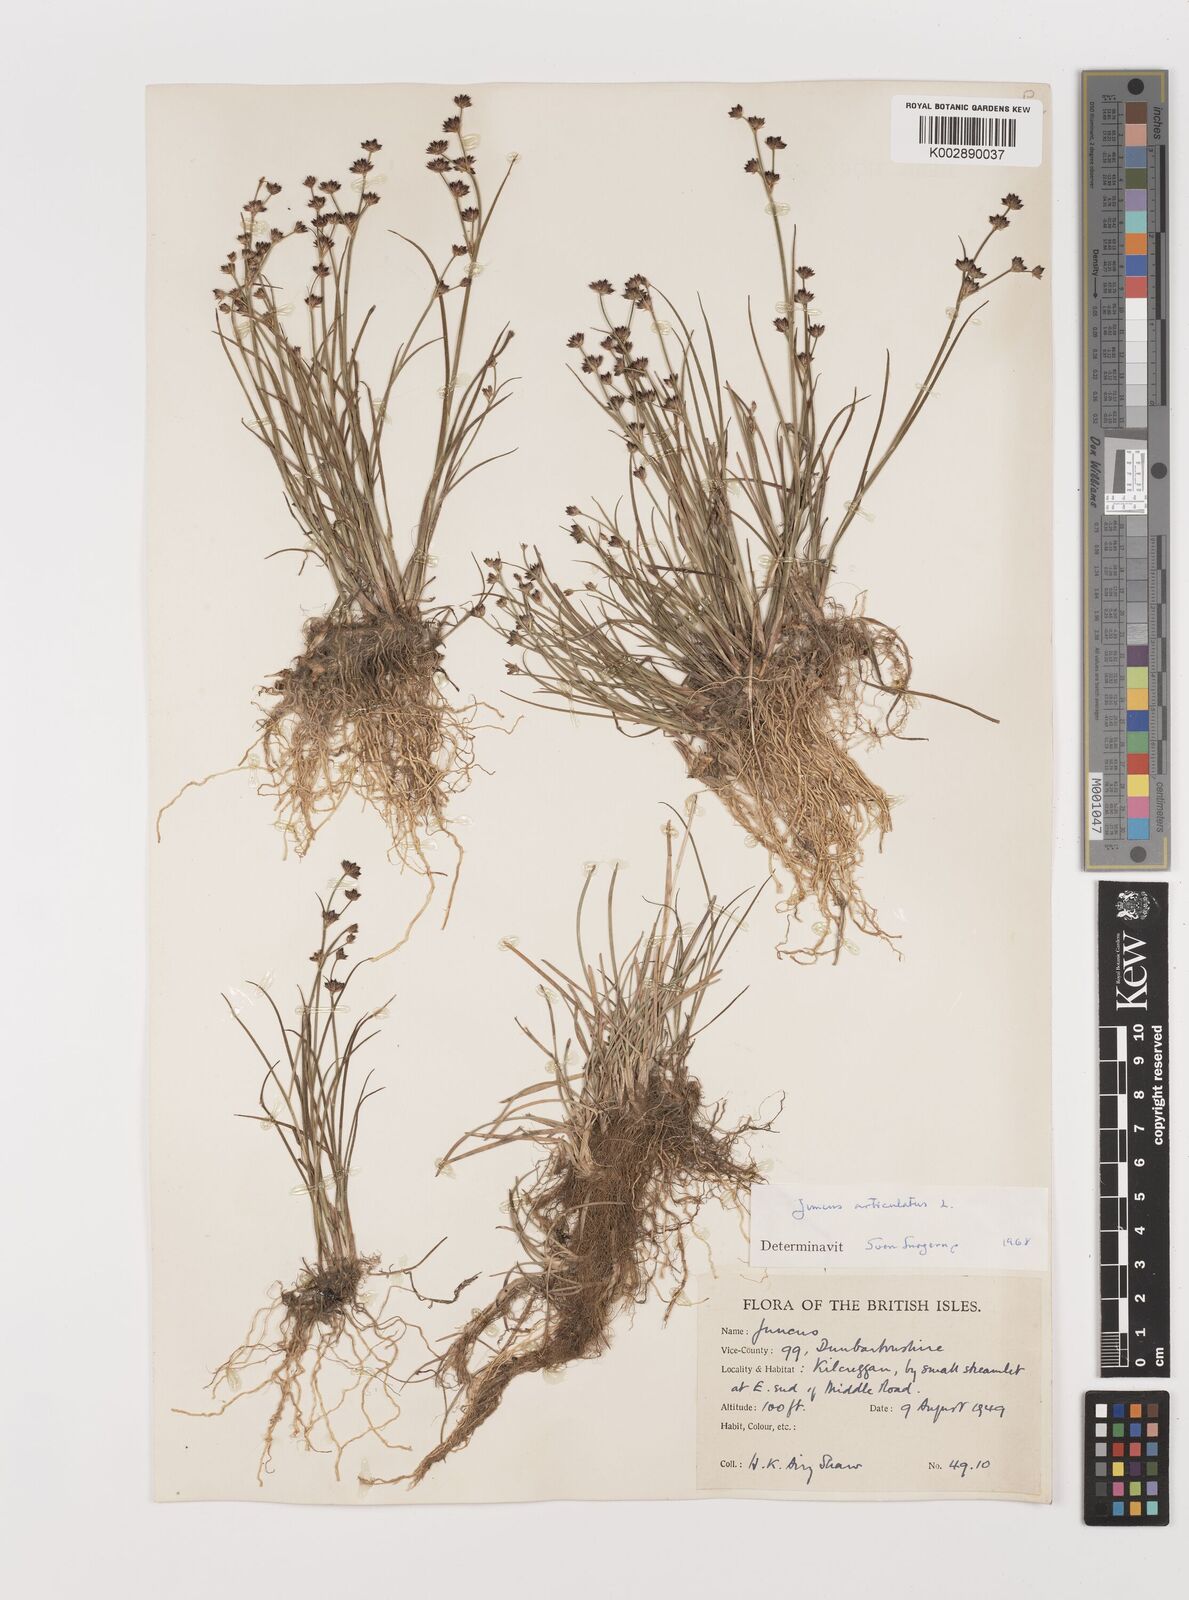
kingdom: Plantae
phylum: Tracheophyta
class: Liliopsida
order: Poales
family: Juncaceae
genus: Juncus
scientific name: Juncus articulatus
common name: Jointed rush
